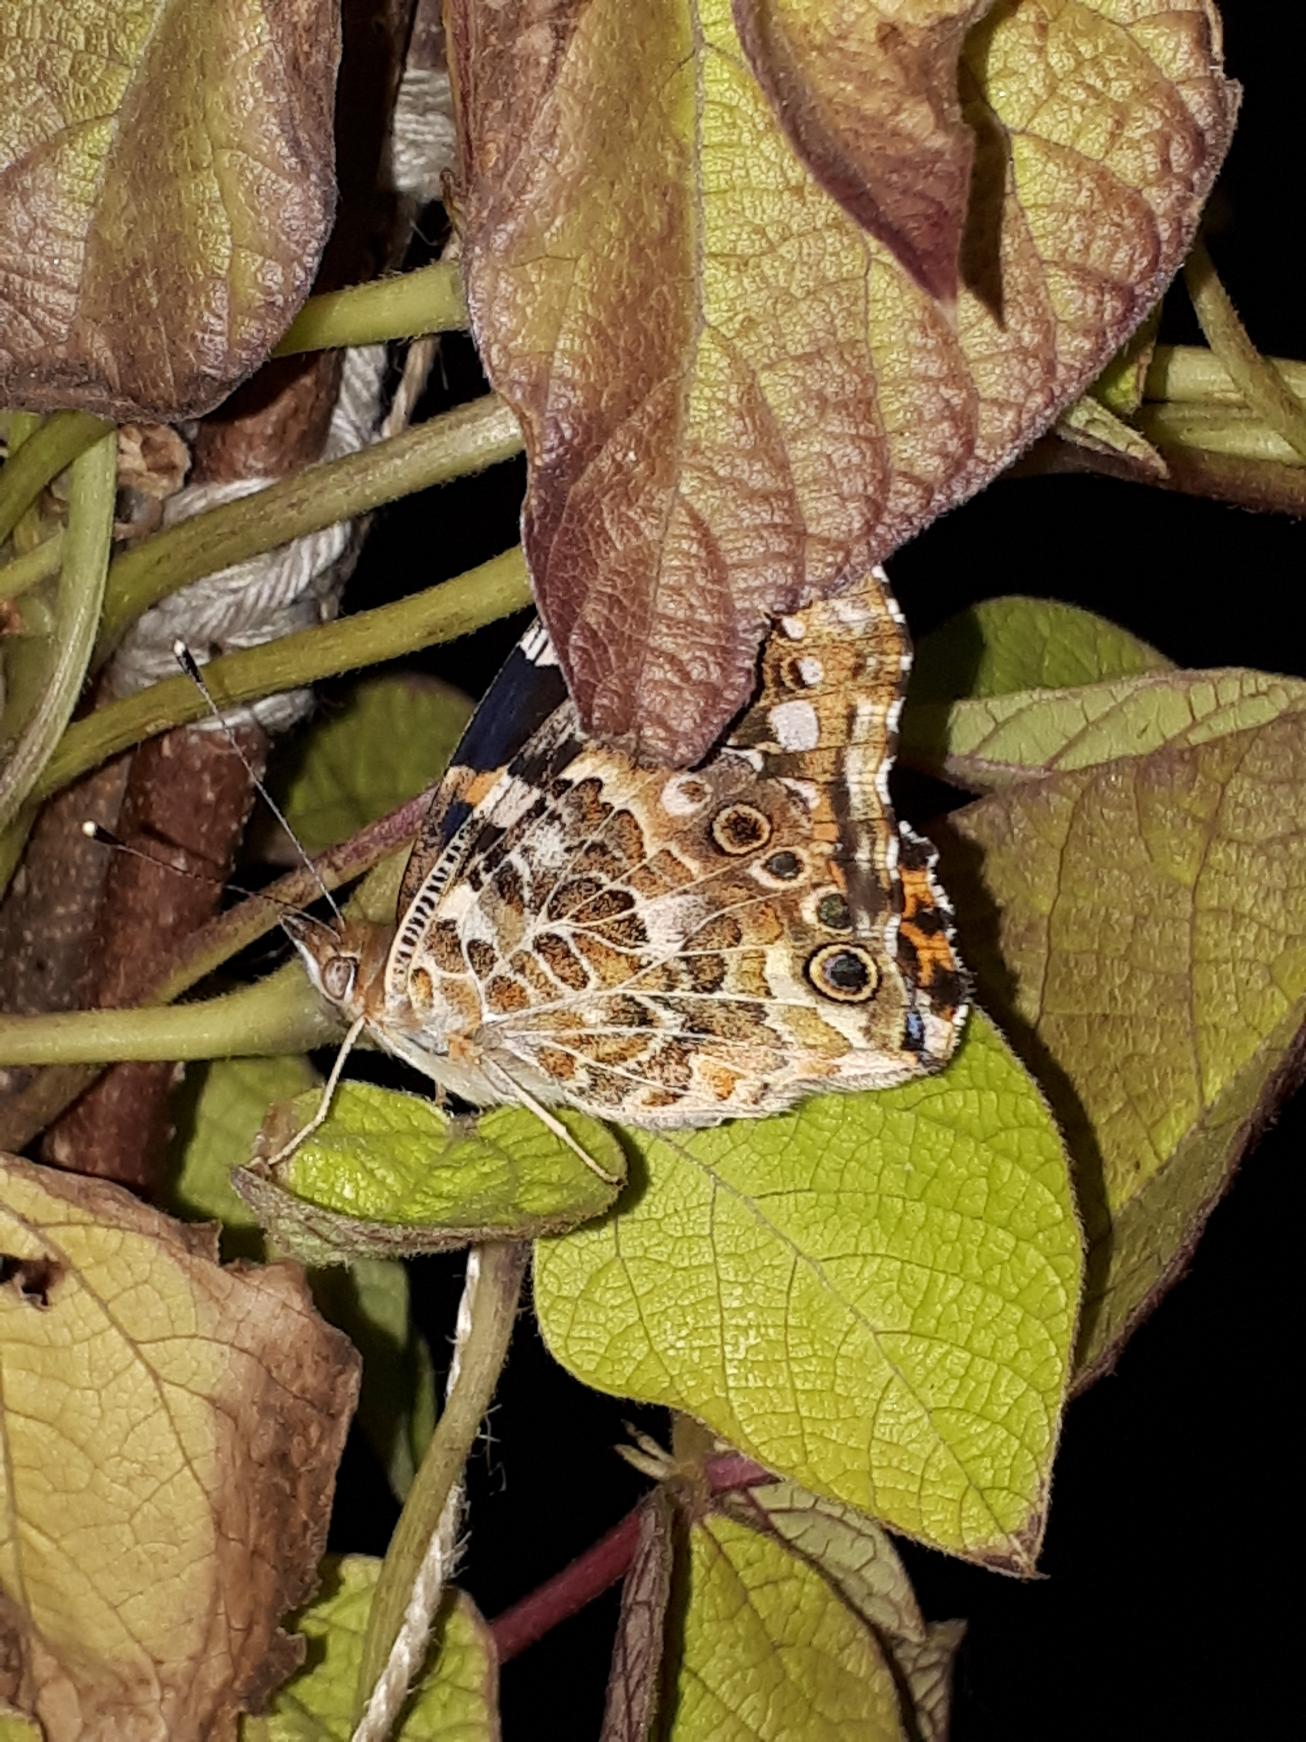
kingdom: Animalia
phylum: Arthropoda
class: Insecta
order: Lepidoptera
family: Nymphalidae
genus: Vanessa
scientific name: Vanessa cardui
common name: Tidselsommerfugl
